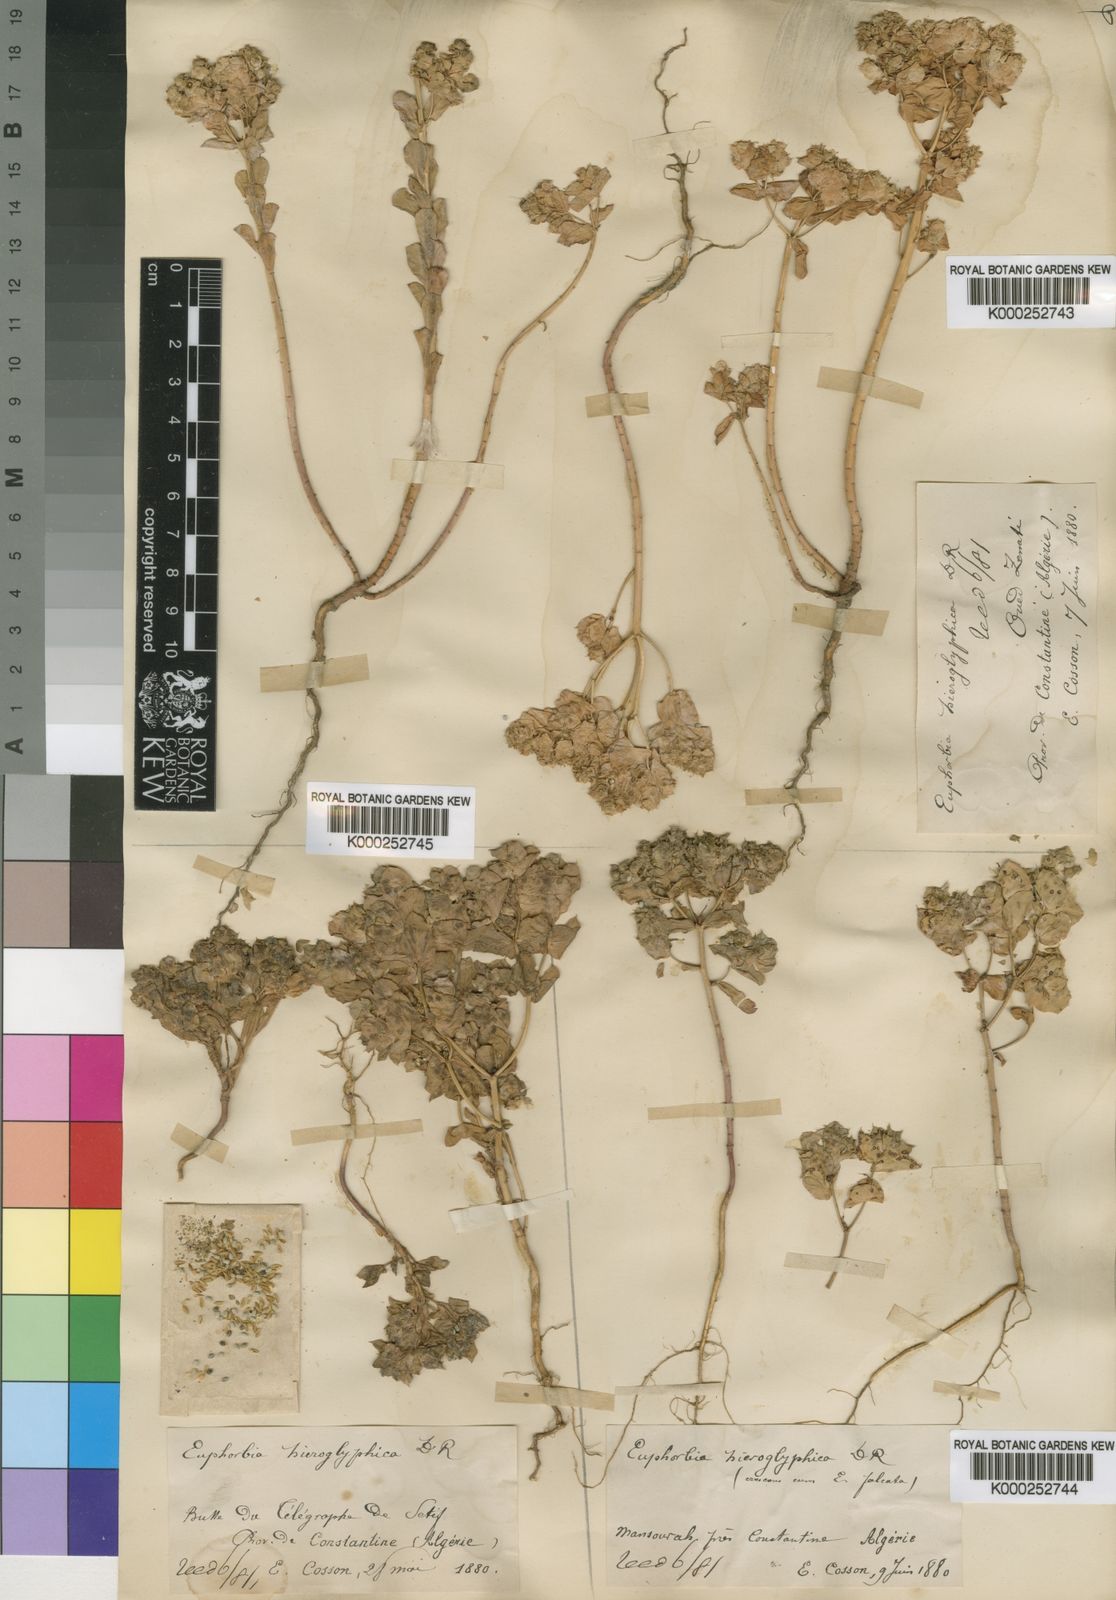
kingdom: Plantae
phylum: Tracheophyta
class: Magnoliopsida
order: Malpighiales
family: Euphorbiaceae
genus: Euphorbia
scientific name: Euphorbia hieroglyphica
